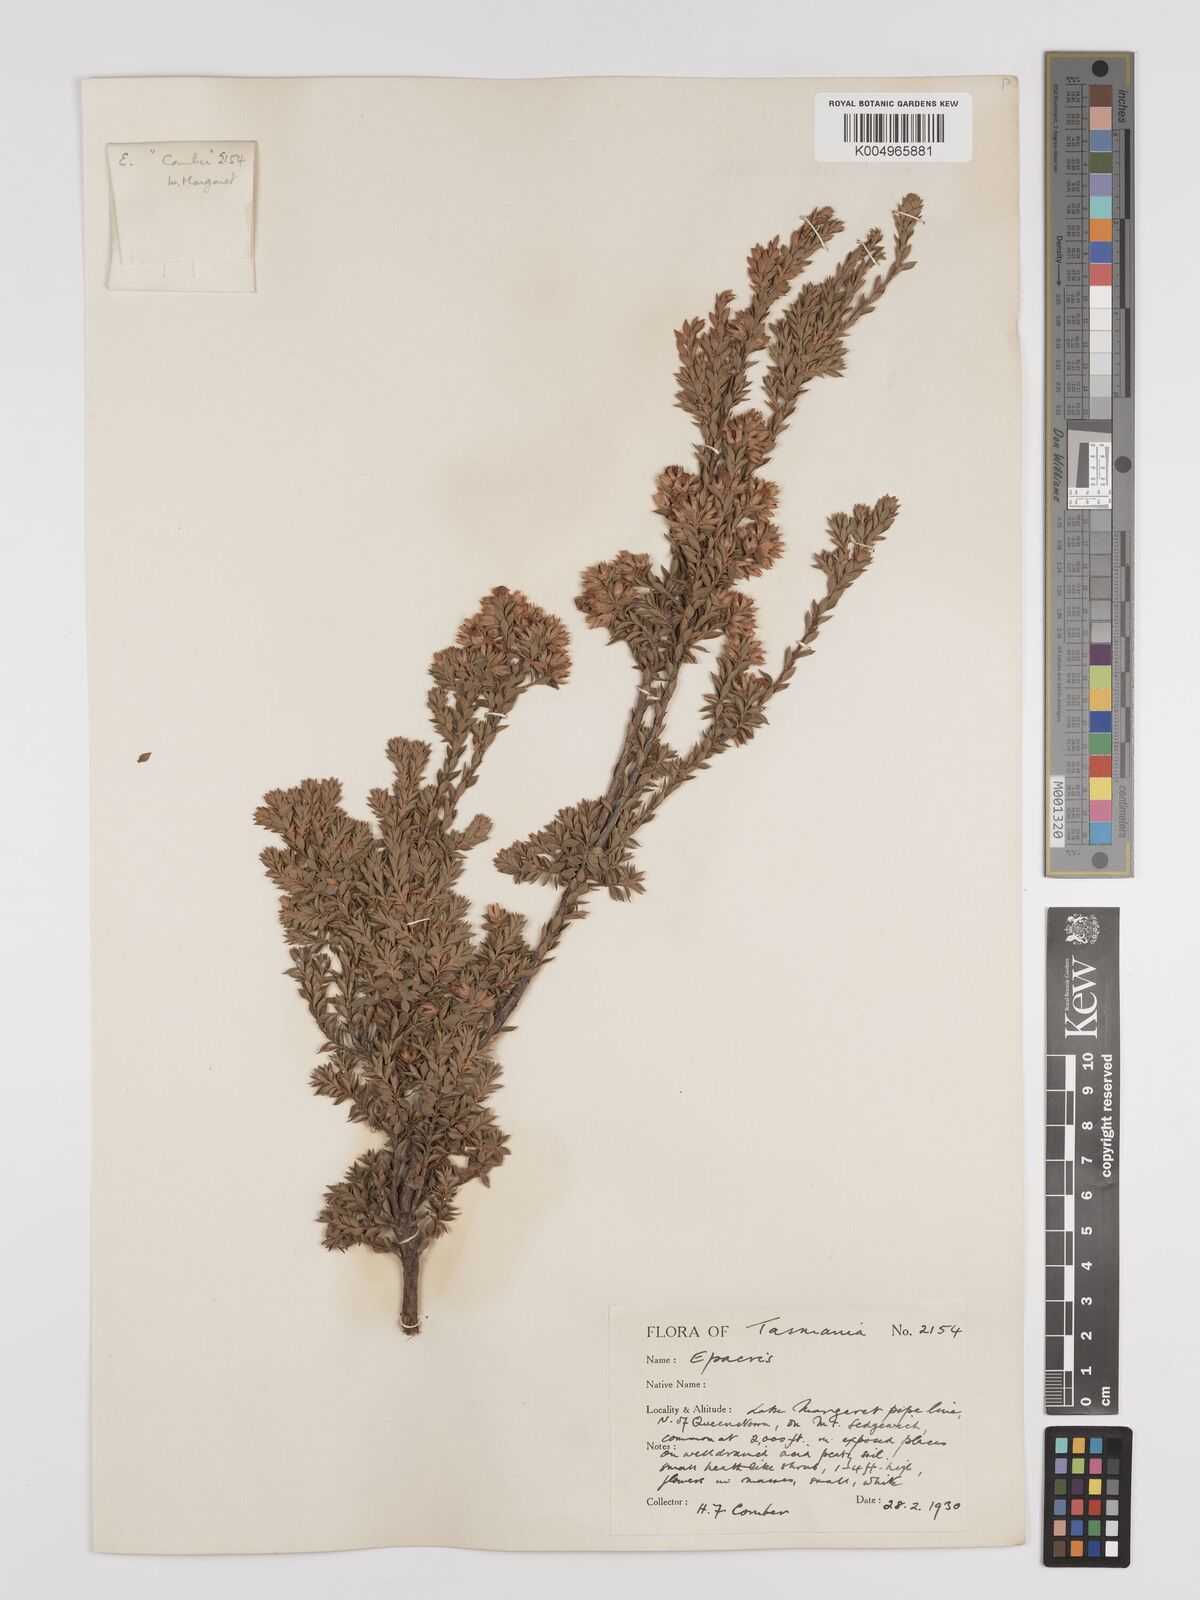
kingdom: Plantae
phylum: Tracheophyta
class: Magnoliopsida
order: Ericales
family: Ericaceae
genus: Epacris
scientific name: Epacris comberi
